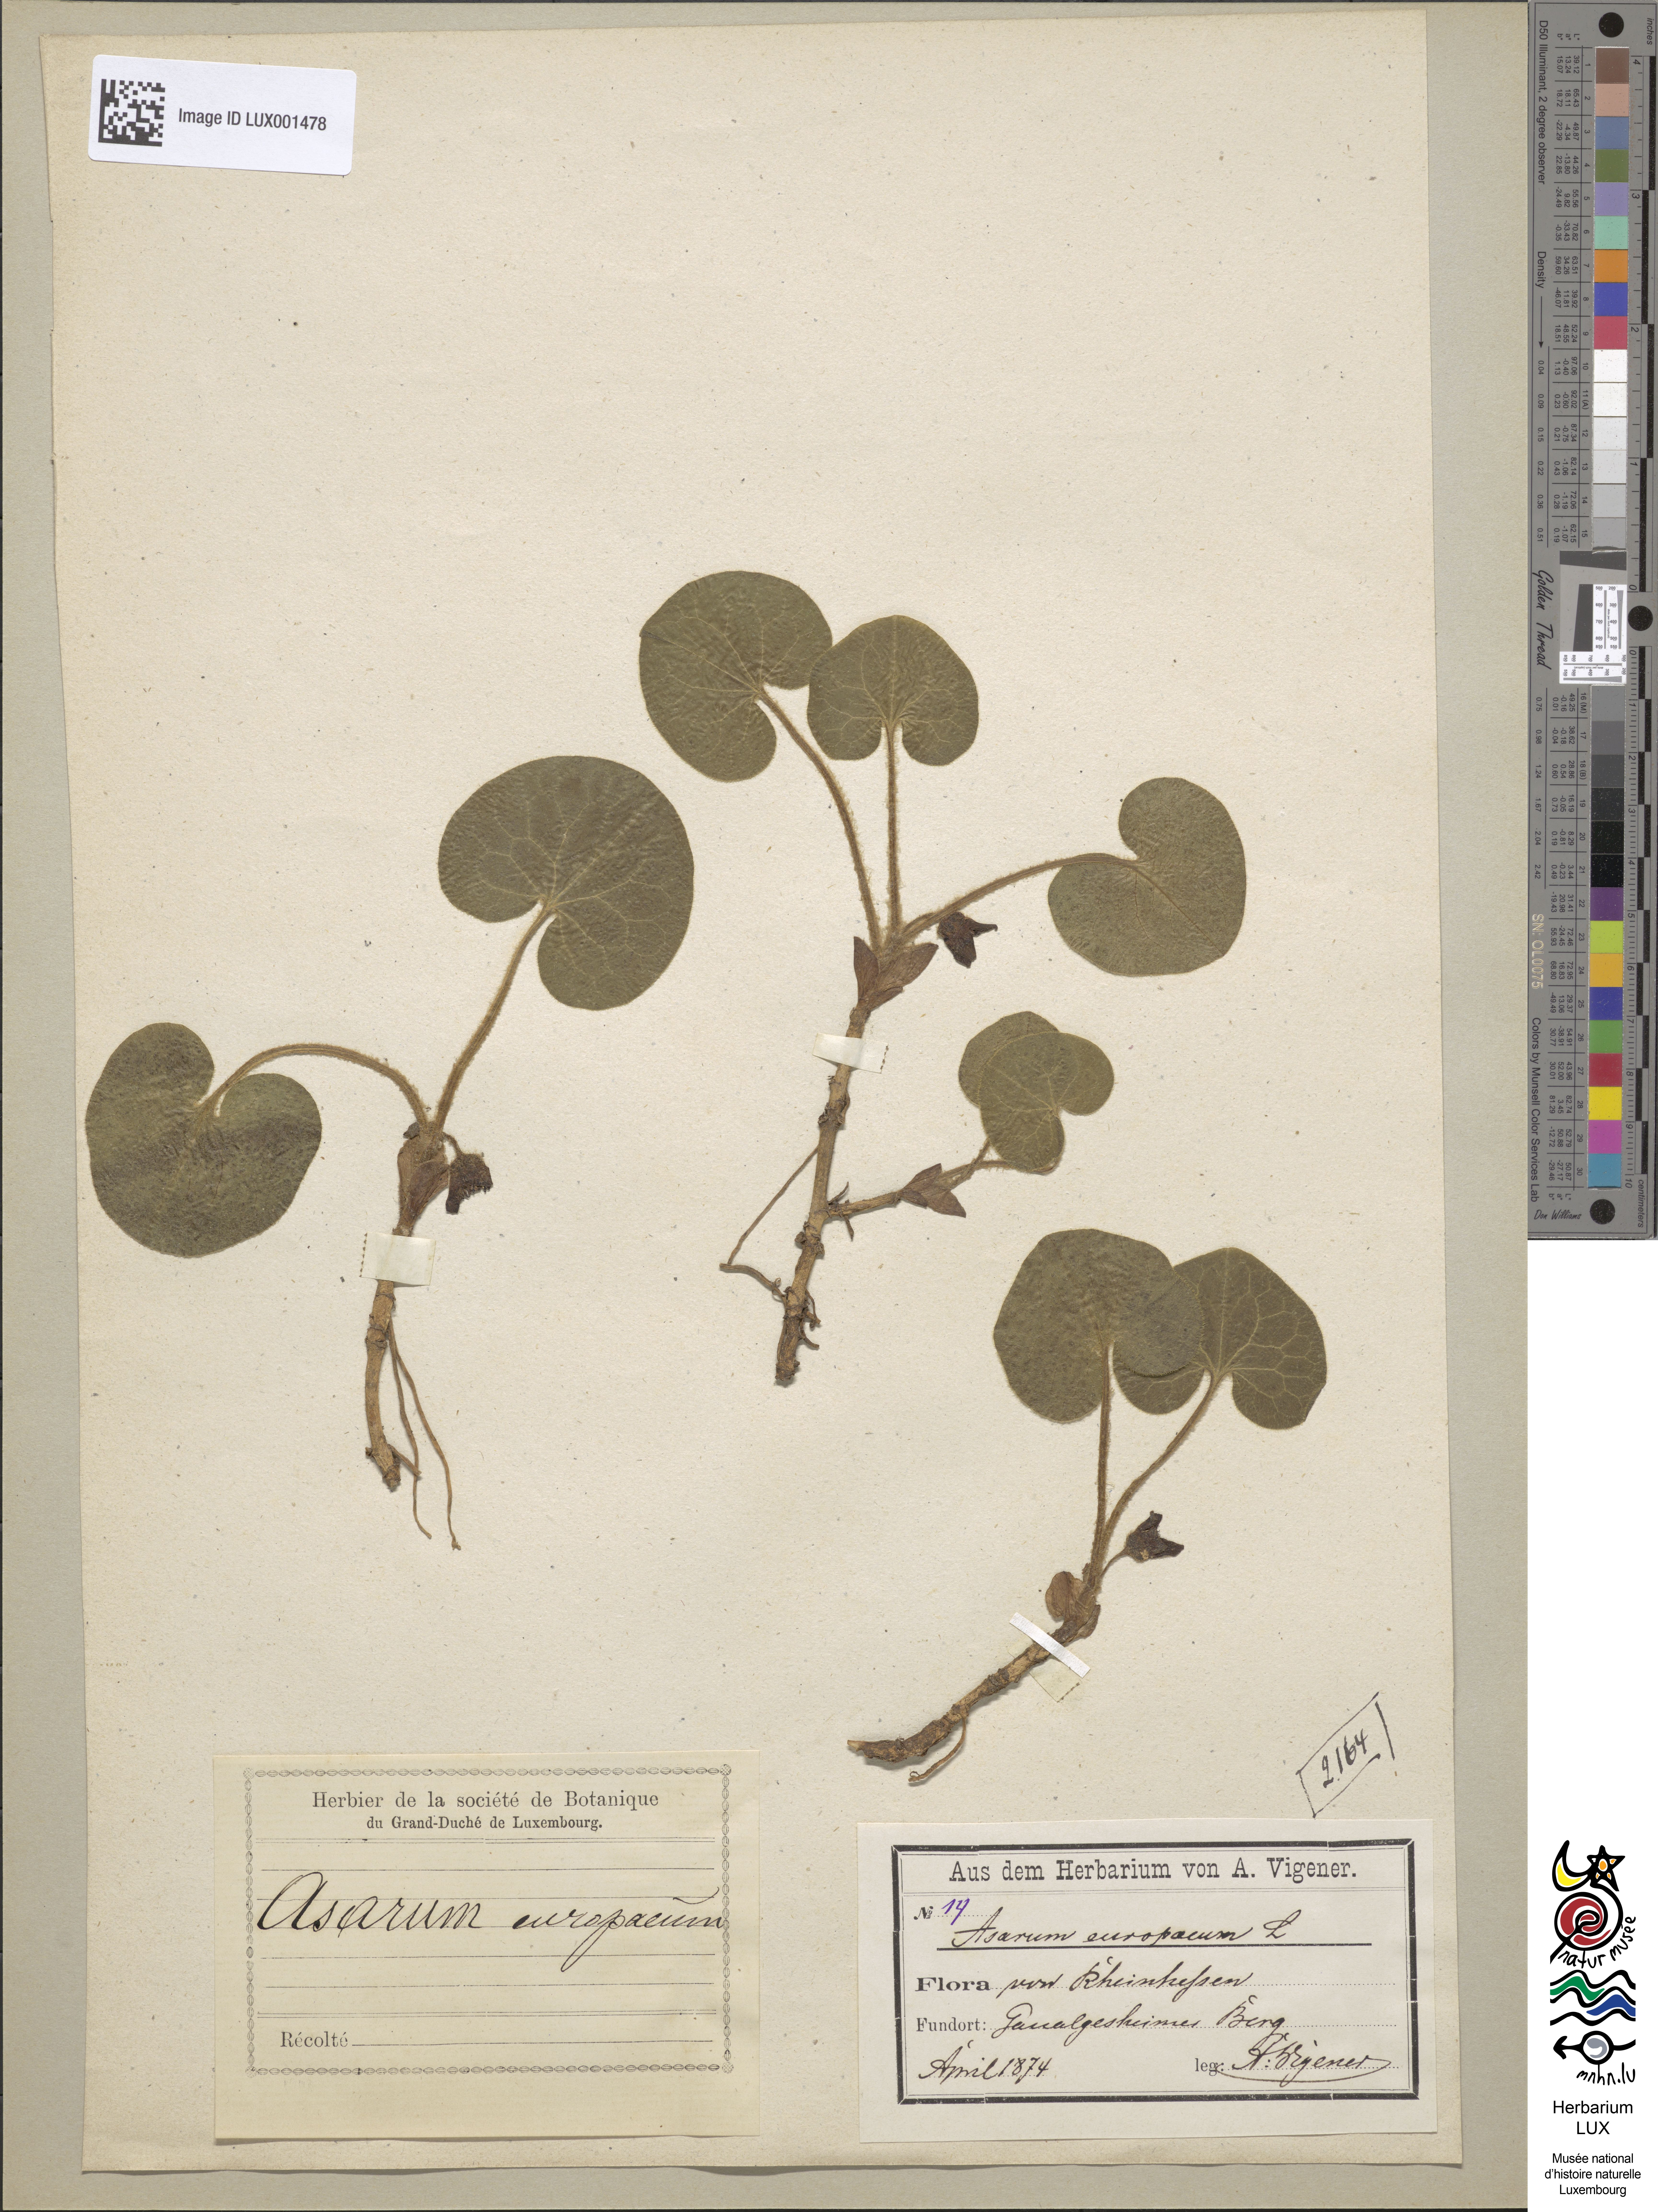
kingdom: Plantae
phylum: Tracheophyta
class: Magnoliopsida
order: Piperales
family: Aristolochiaceae
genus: Asarum
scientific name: Asarum europaeum
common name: Asarabacca
